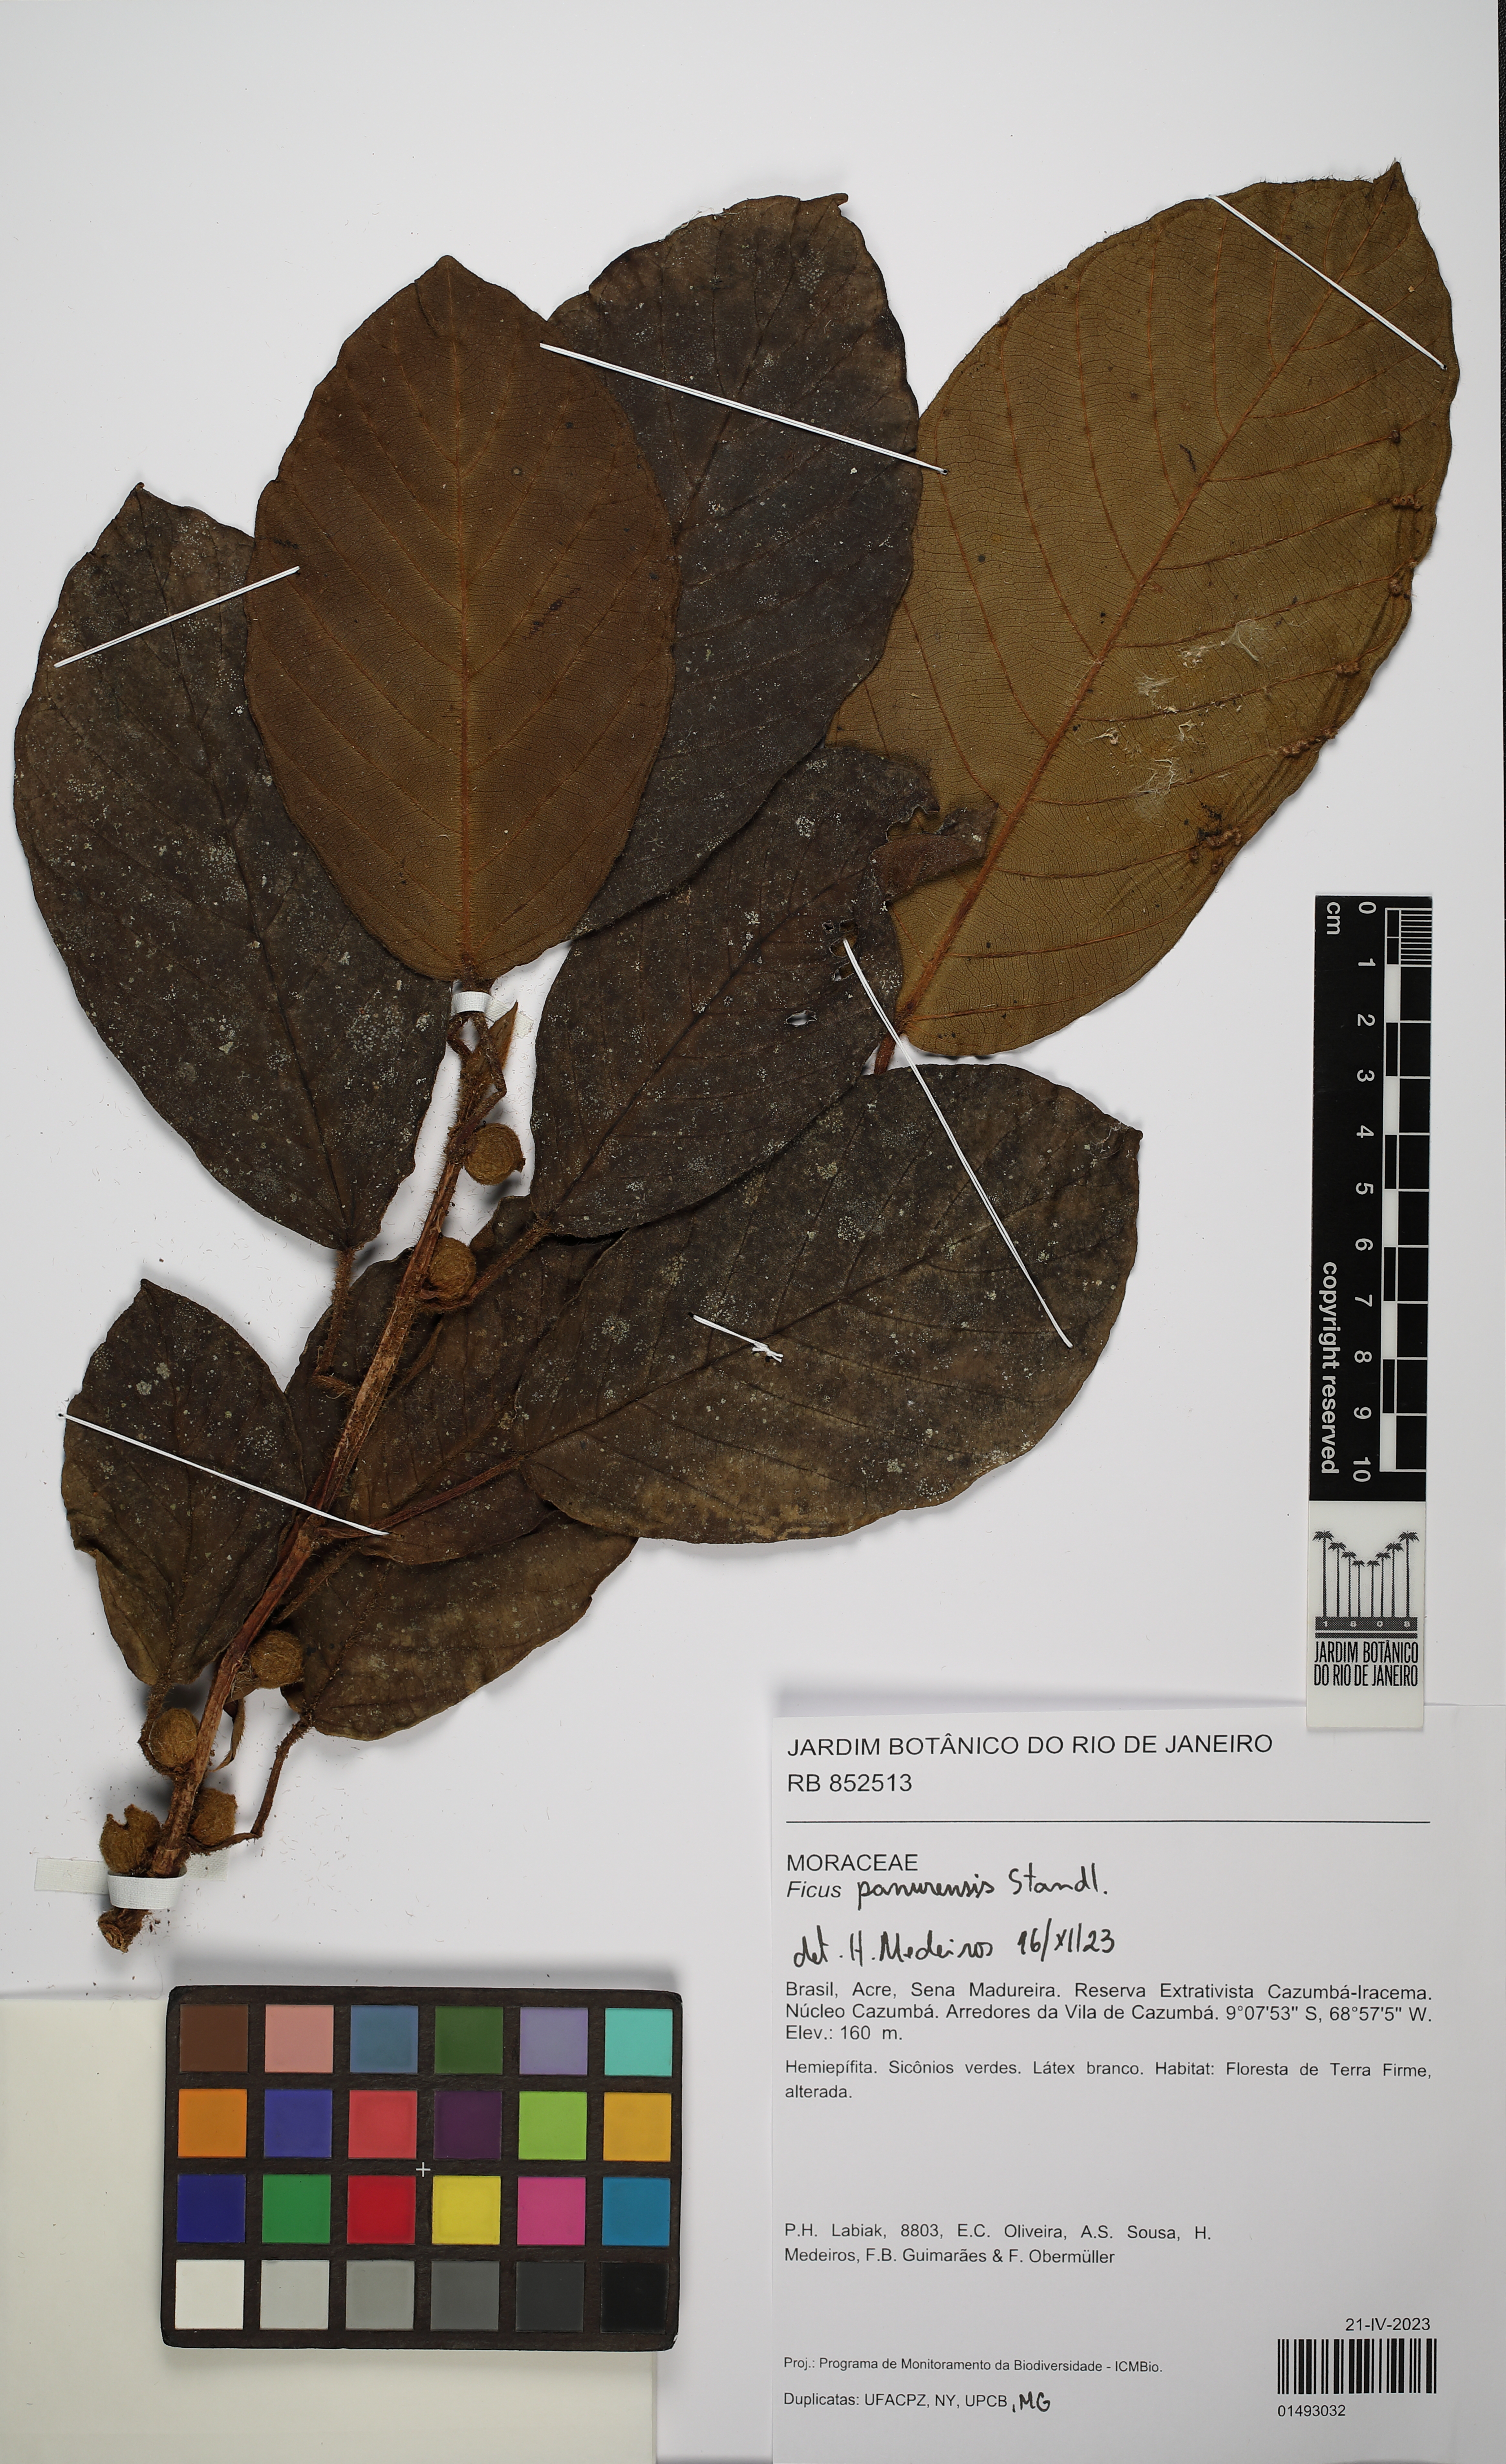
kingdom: Plantae
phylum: Tracheophyta
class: Magnoliopsida
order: Rosales
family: Moraceae
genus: Ficus
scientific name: Ficus panurensis
